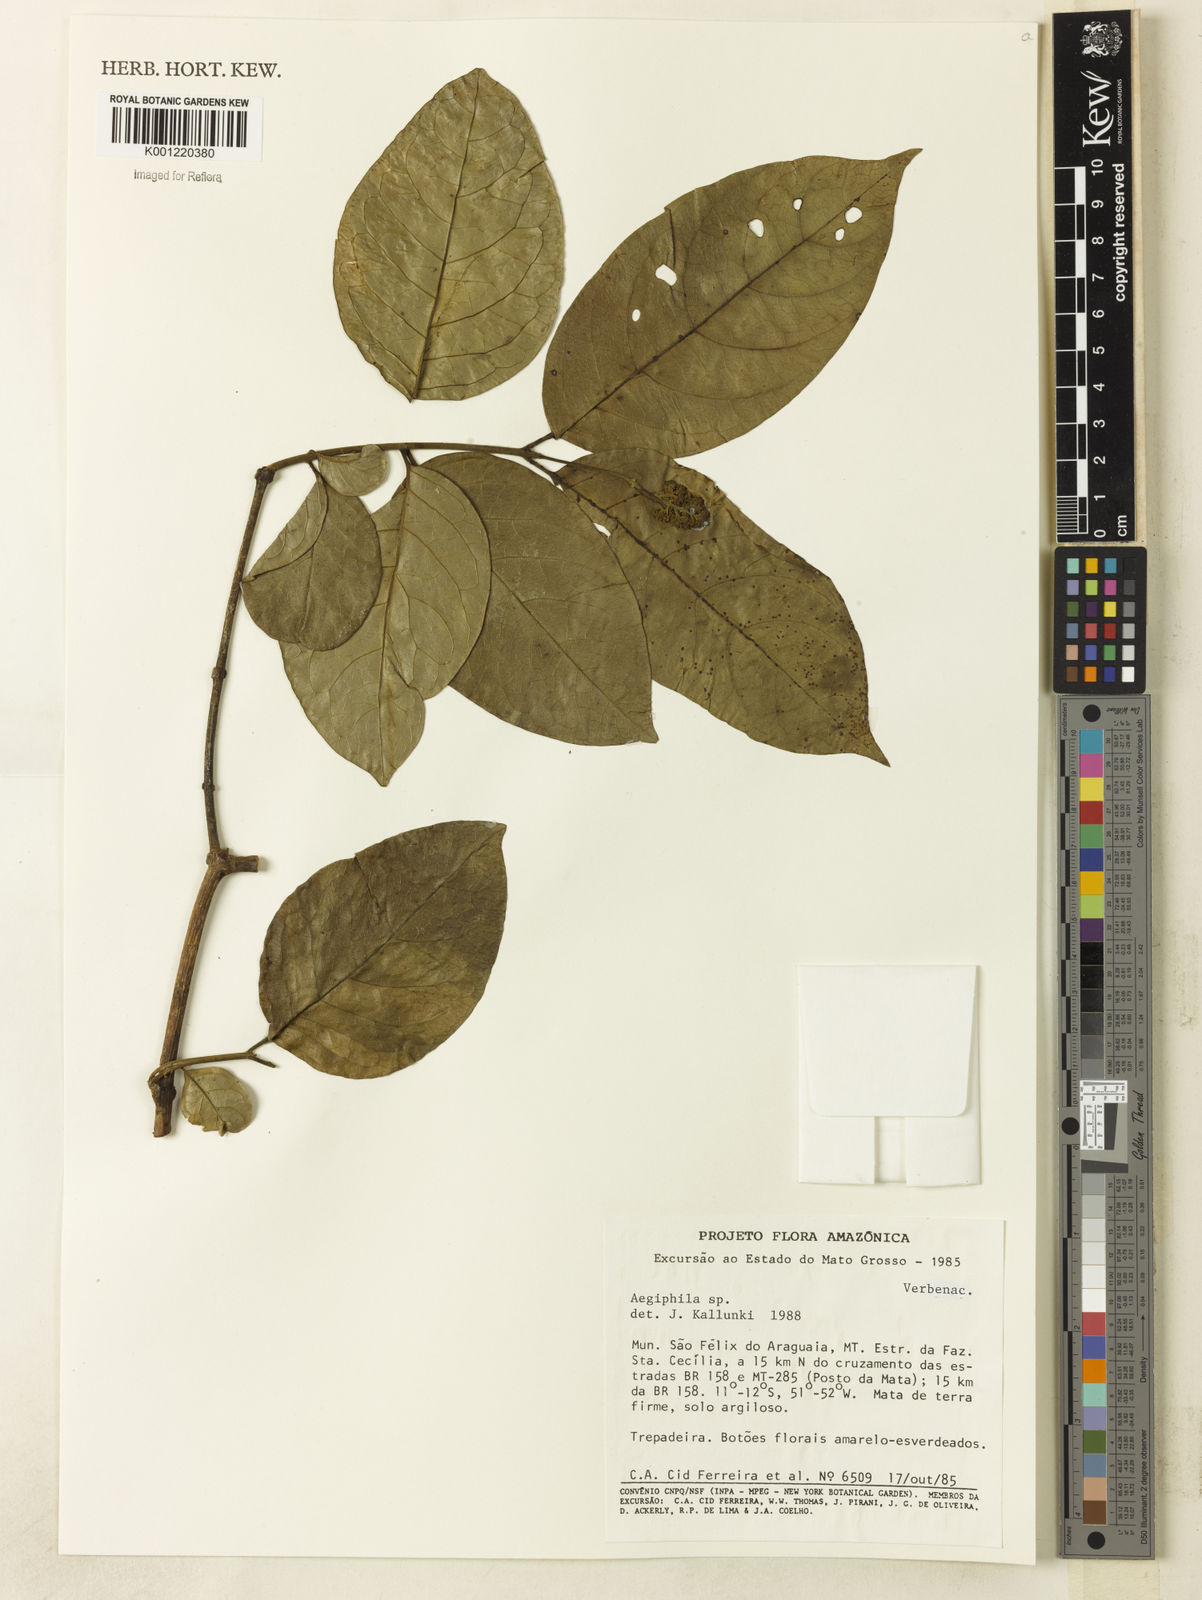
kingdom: Plantae
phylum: Tracheophyta
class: Magnoliopsida
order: Lamiales
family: Lamiaceae
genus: Aegiphila
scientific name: Aegiphila
